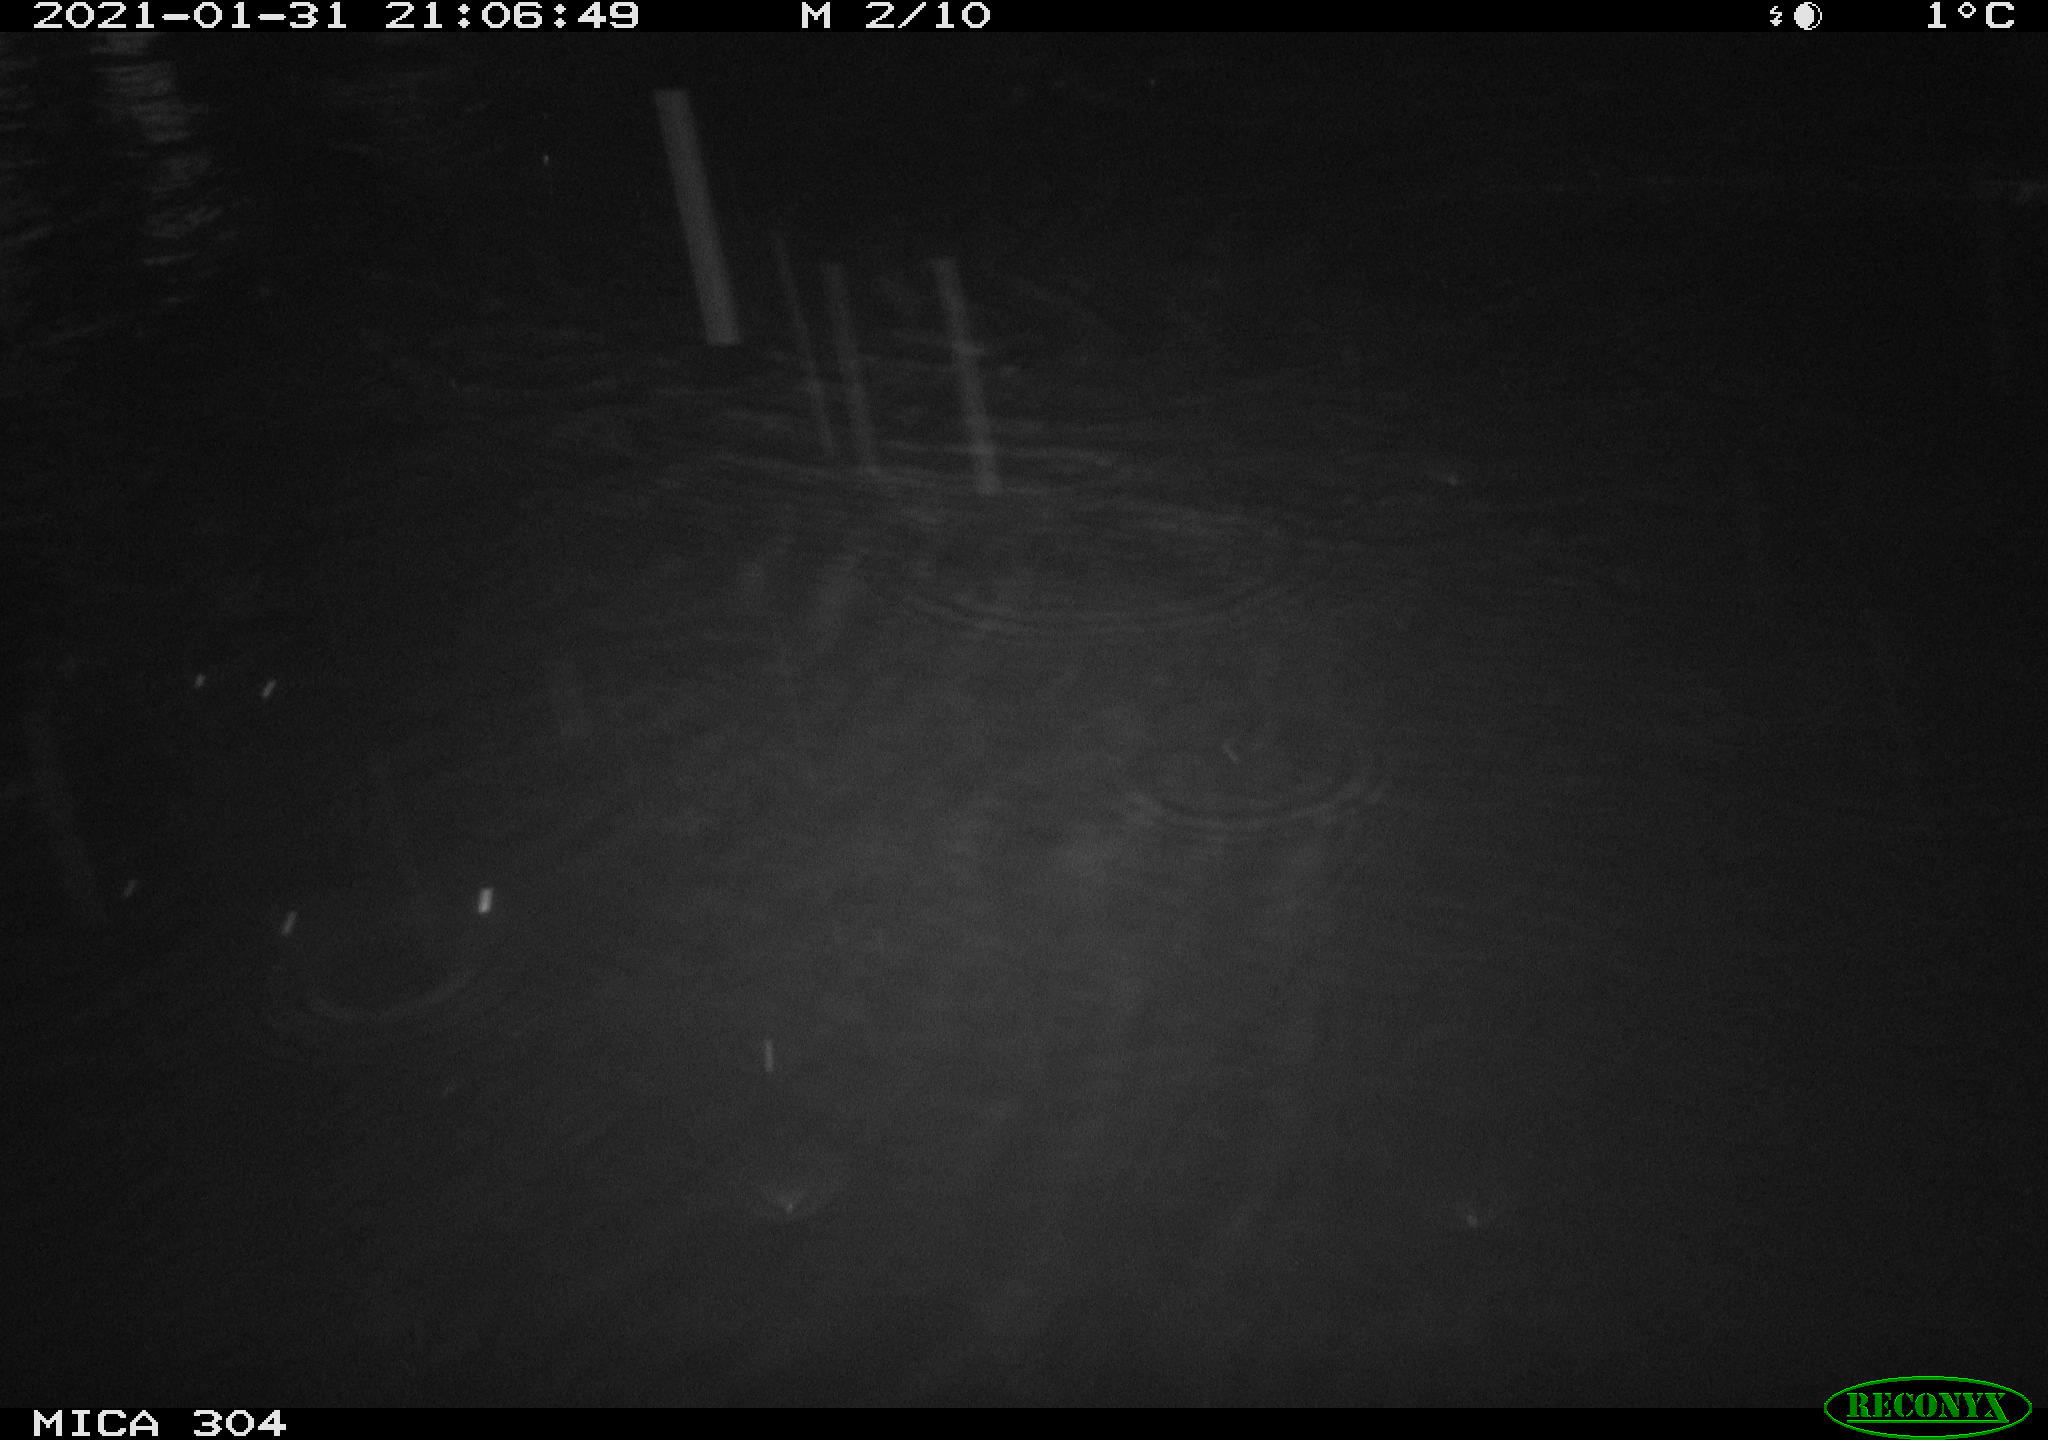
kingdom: Animalia
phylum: Chordata
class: Mammalia
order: Rodentia
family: Muridae
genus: Rattus
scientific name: Rattus norvegicus
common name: Brown rat
